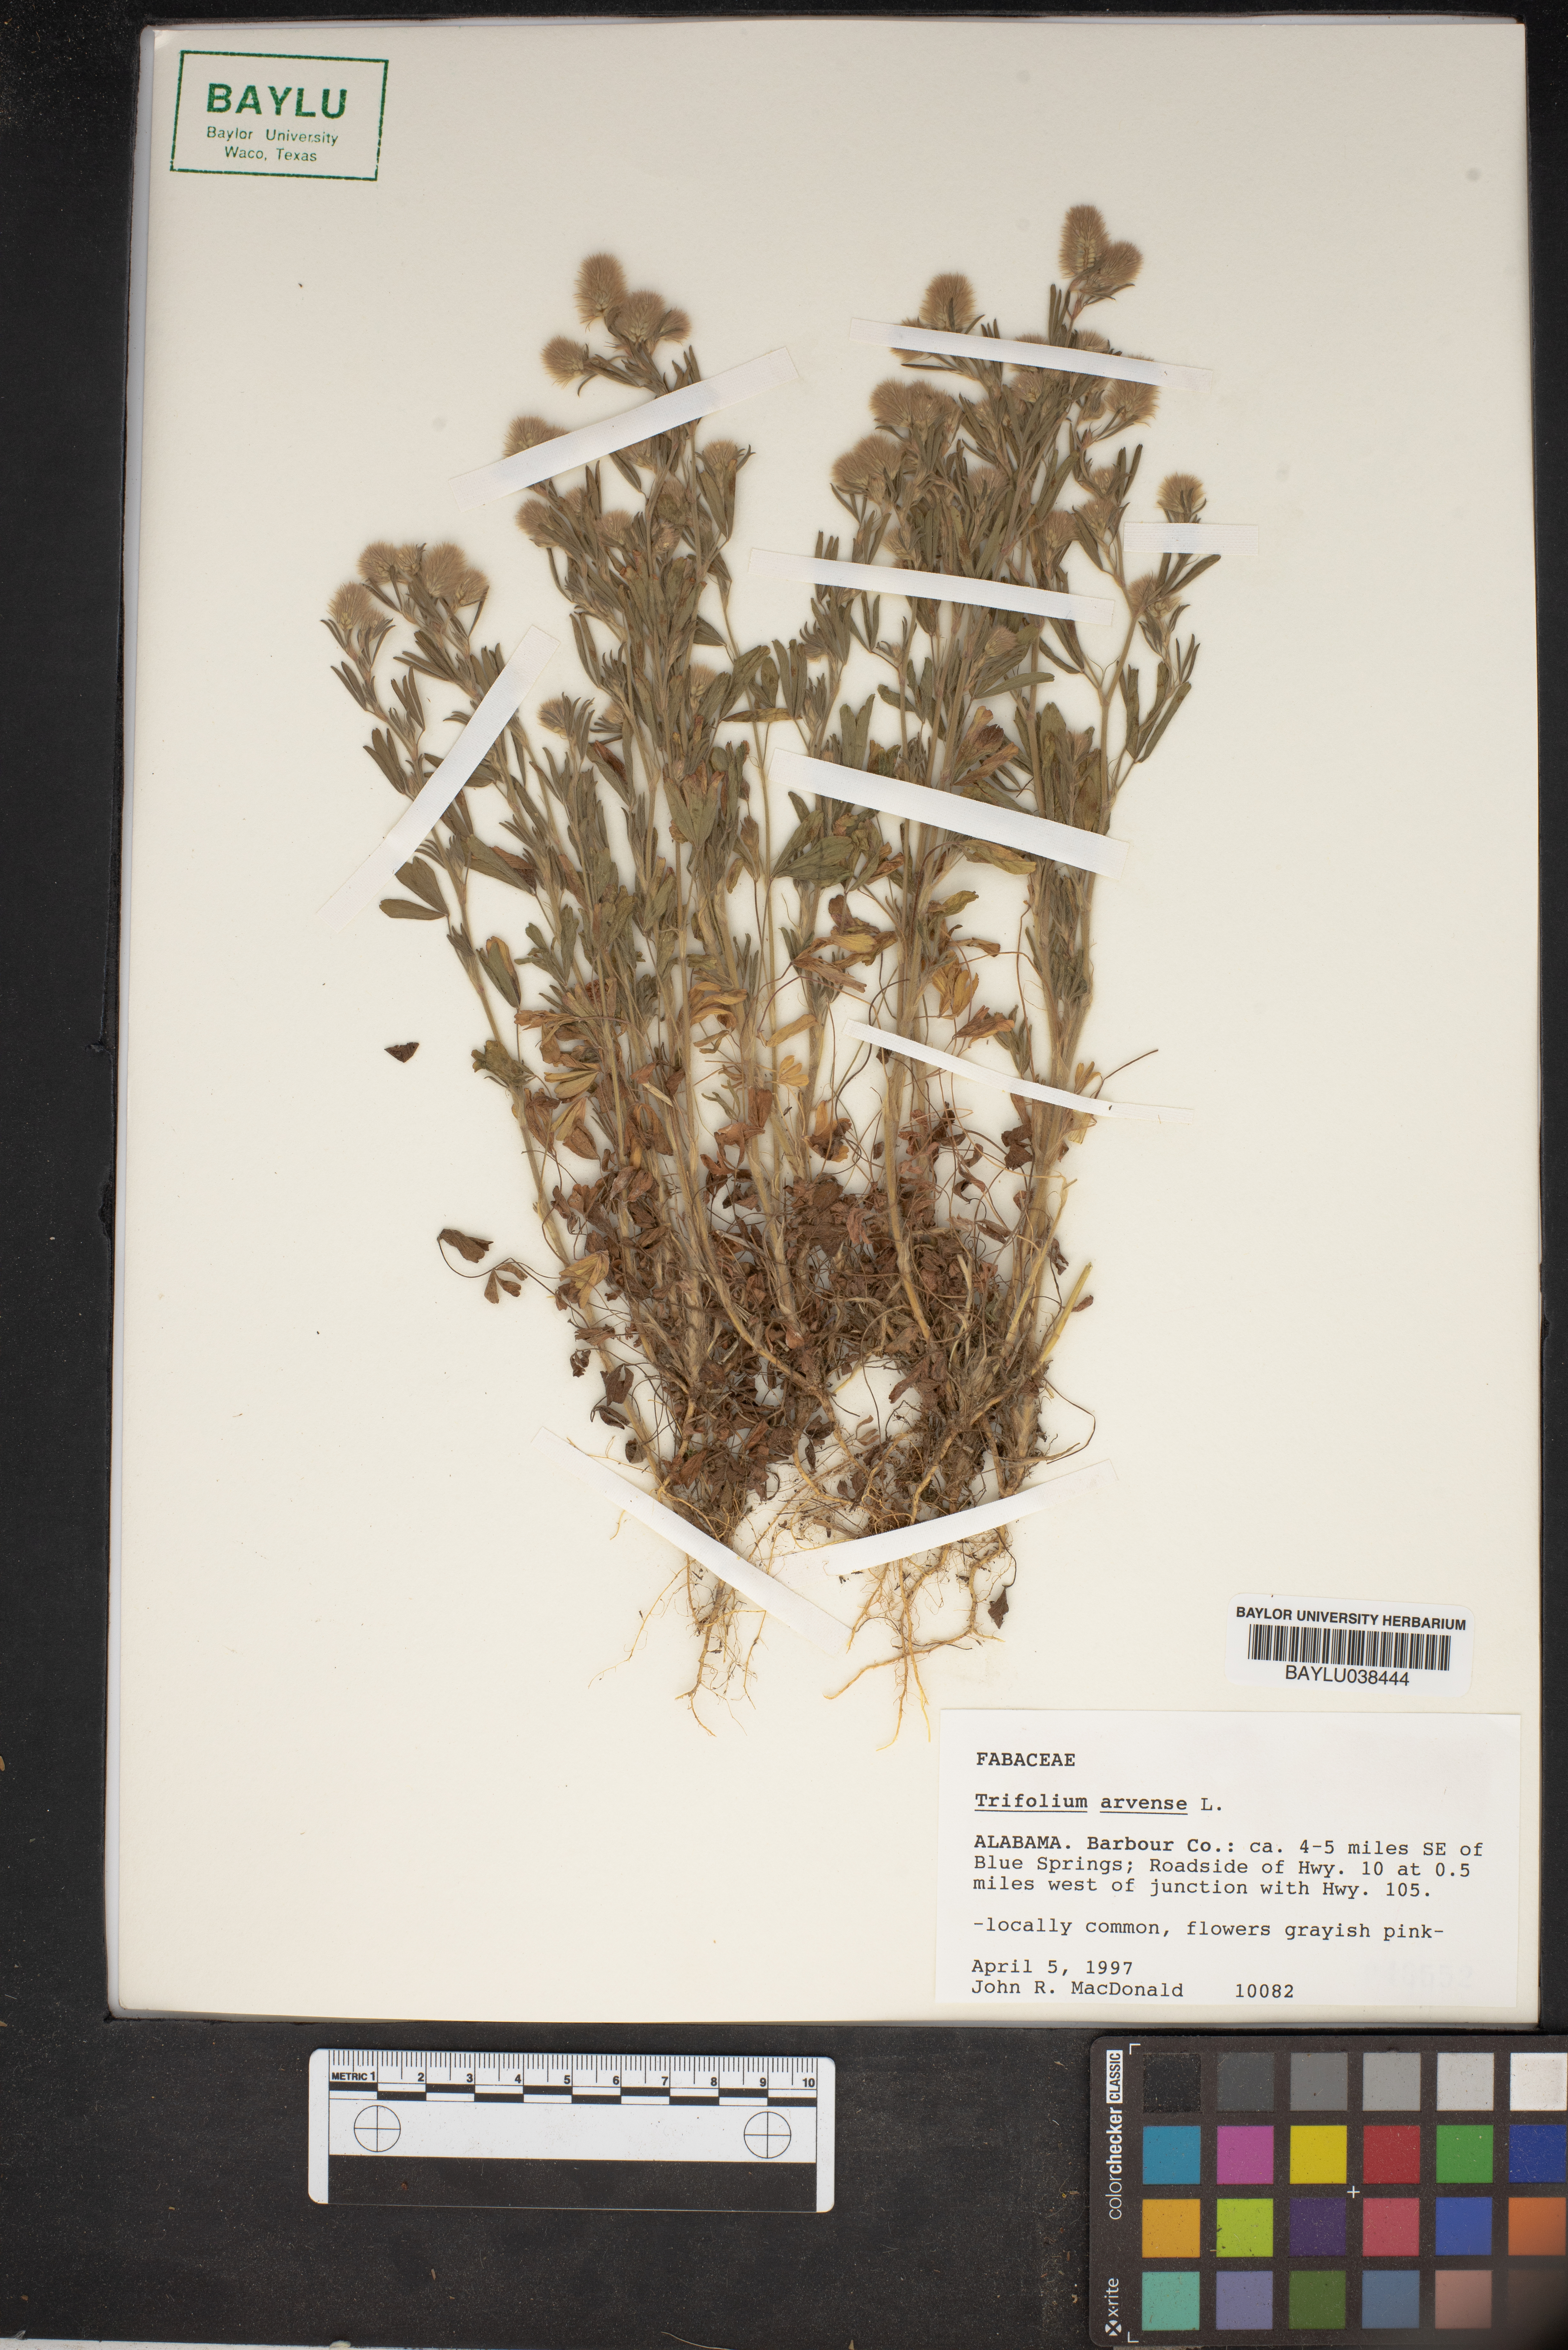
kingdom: Plantae
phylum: Tracheophyta
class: Magnoliopsida
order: Fabales
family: Fabaceae
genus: Trifolium
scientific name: Trifolium arvense
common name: Hare's-foot clover
